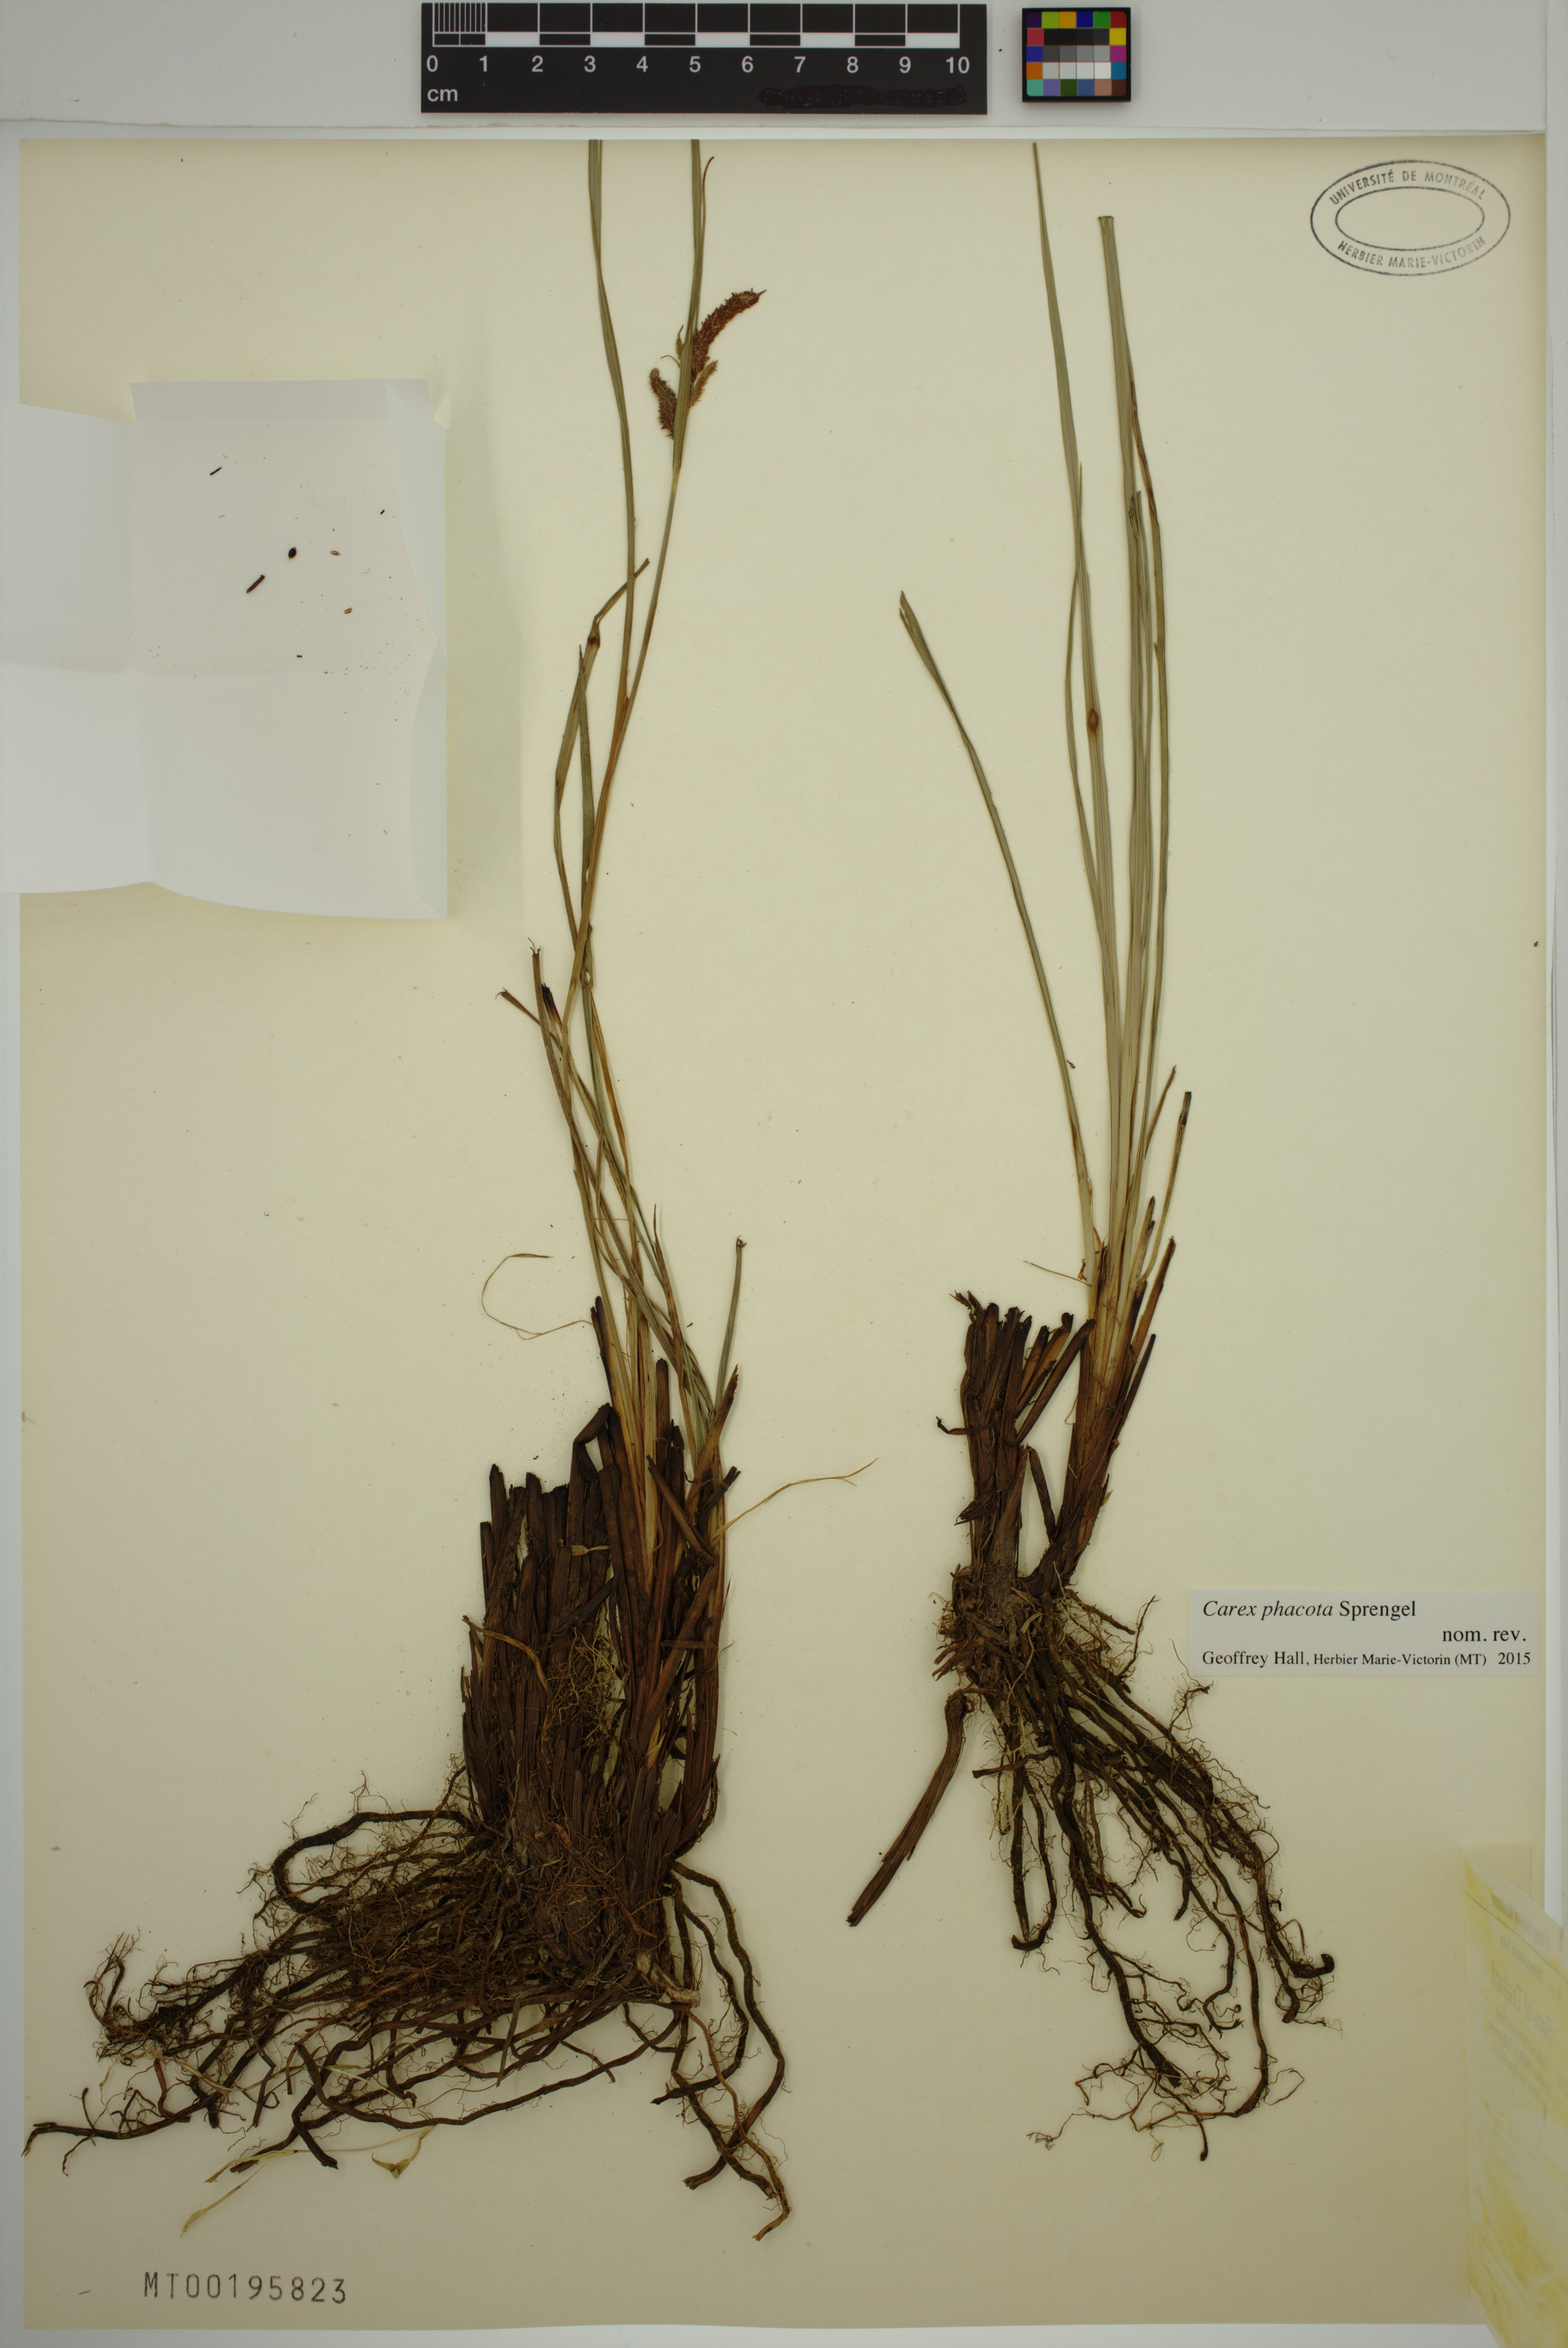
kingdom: Plantae
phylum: Tracheophyta
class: Liliopsida
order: Poales
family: Cyperaceae
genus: Carex
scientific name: Carex phacota
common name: Lakeshore sedge
